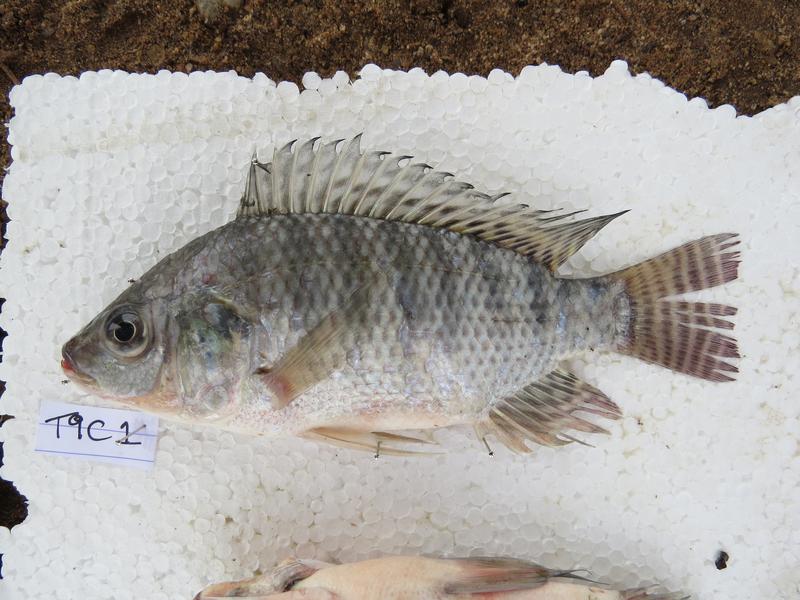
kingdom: Animalia
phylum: Chordata
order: Perciformes
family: Cichlidae
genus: Oreochromis
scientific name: Oreochromis niloticus
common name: Nile tilapia
